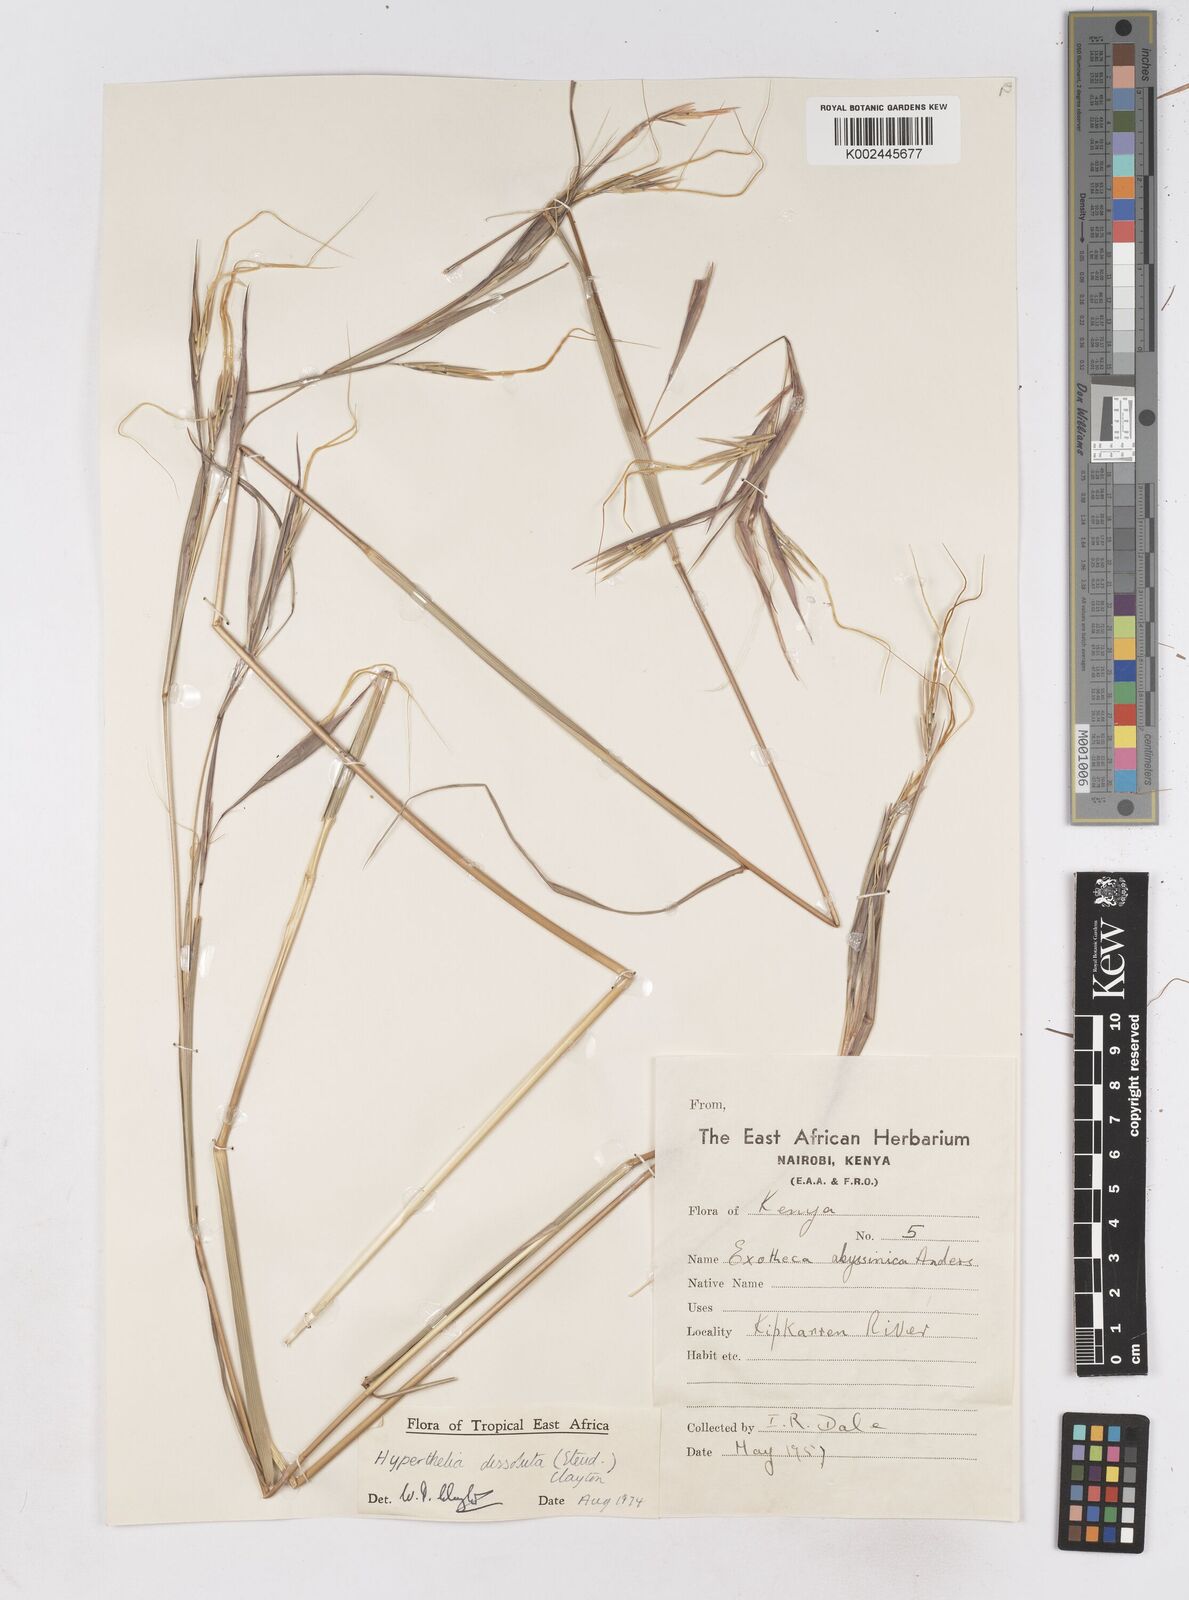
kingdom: Plantae
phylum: Tracheophyta
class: Liliopsida
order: Poales
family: Poaceae
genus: Hyperthelia
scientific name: Hyperthelia dissoluta
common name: Yellow thatching grass
